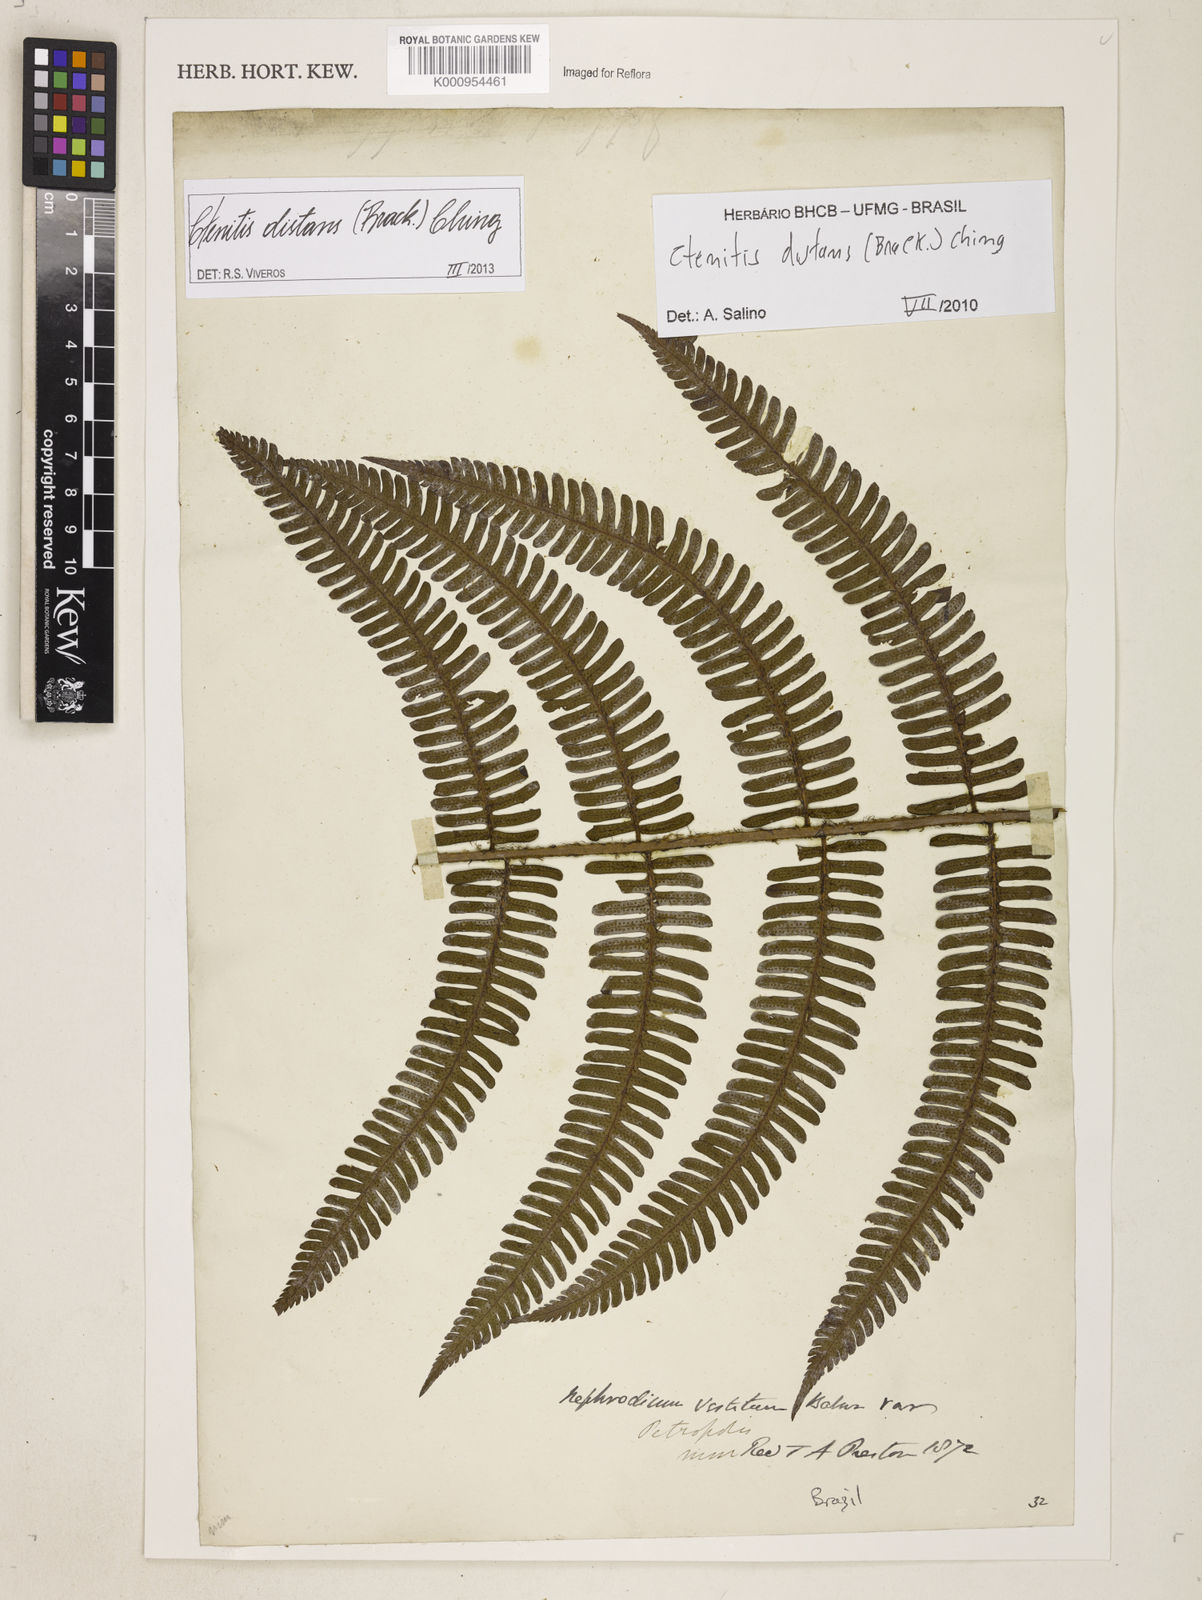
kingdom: Plantae
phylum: Tracheophyta
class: Polypodiopsida
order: Polypodiales
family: Dryopteridaceae
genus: Ctenitis
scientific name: Ctenitis distans
